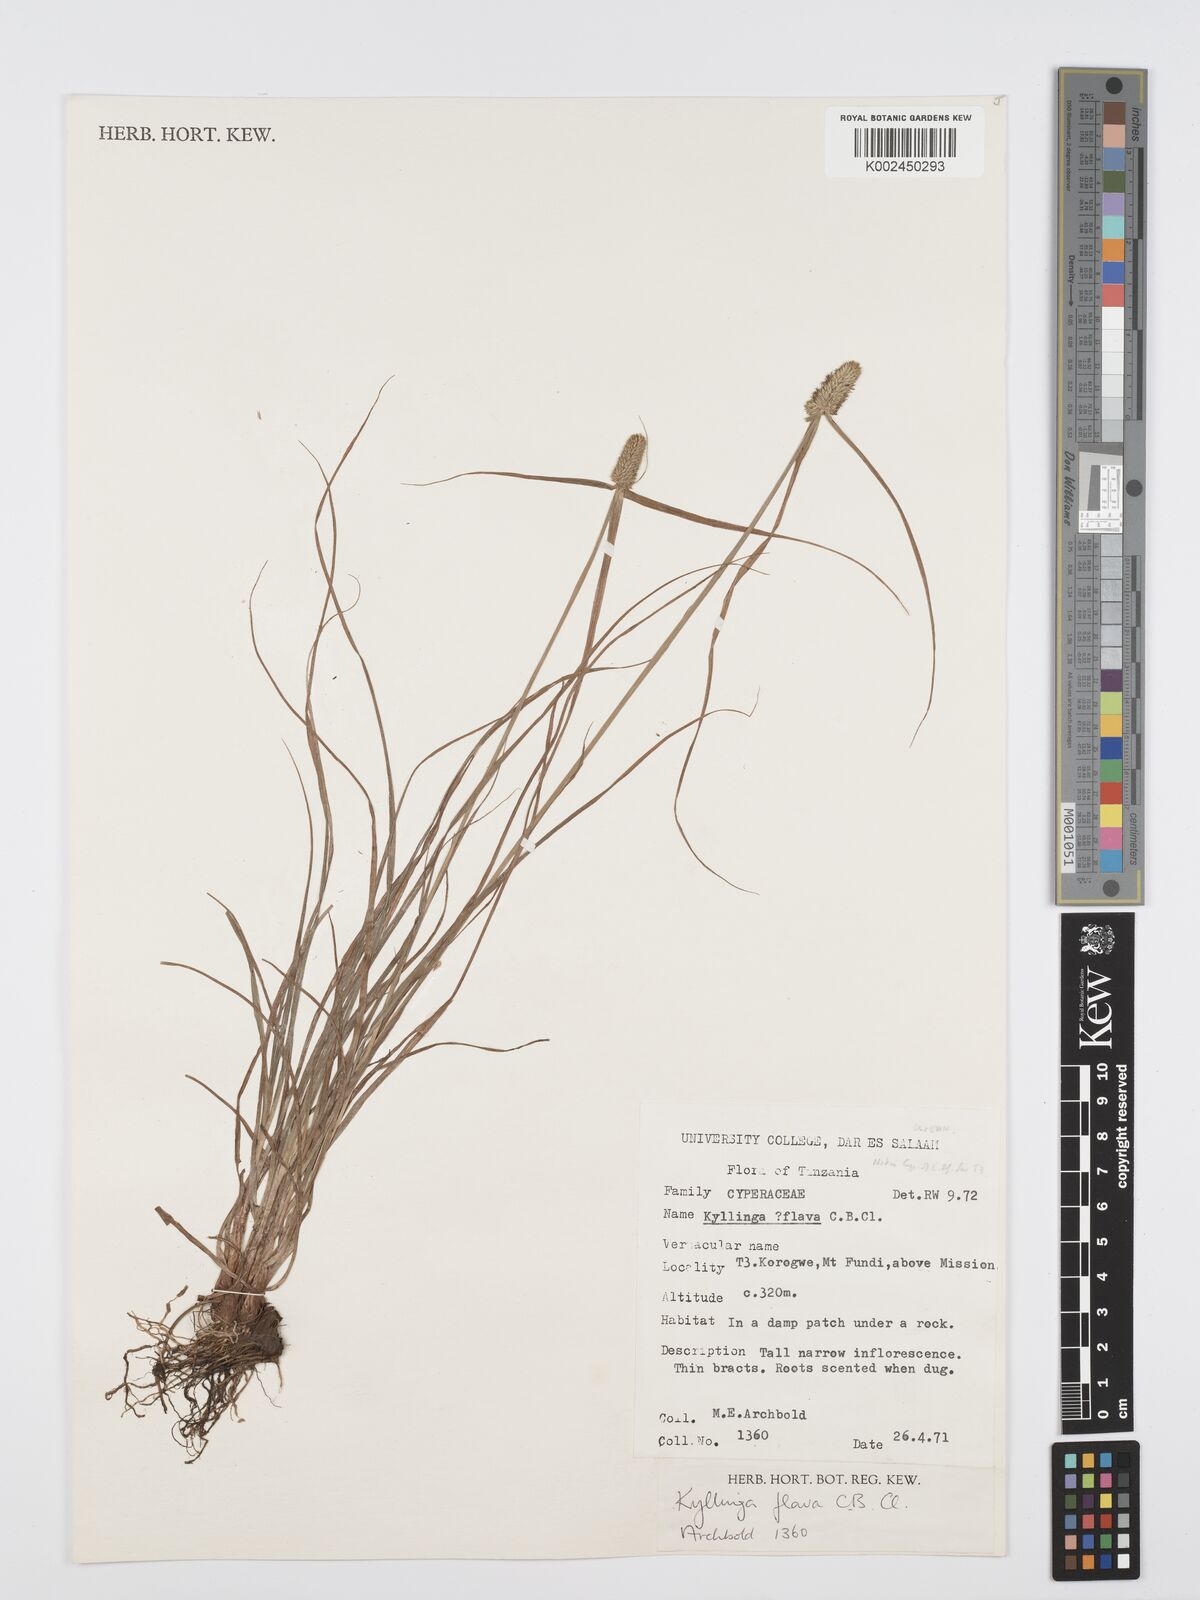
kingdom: Plantae
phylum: Tracheophyta
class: Liliopsida
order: Poales
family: Cyperaceae
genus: Cyperus
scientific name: Cyperus
